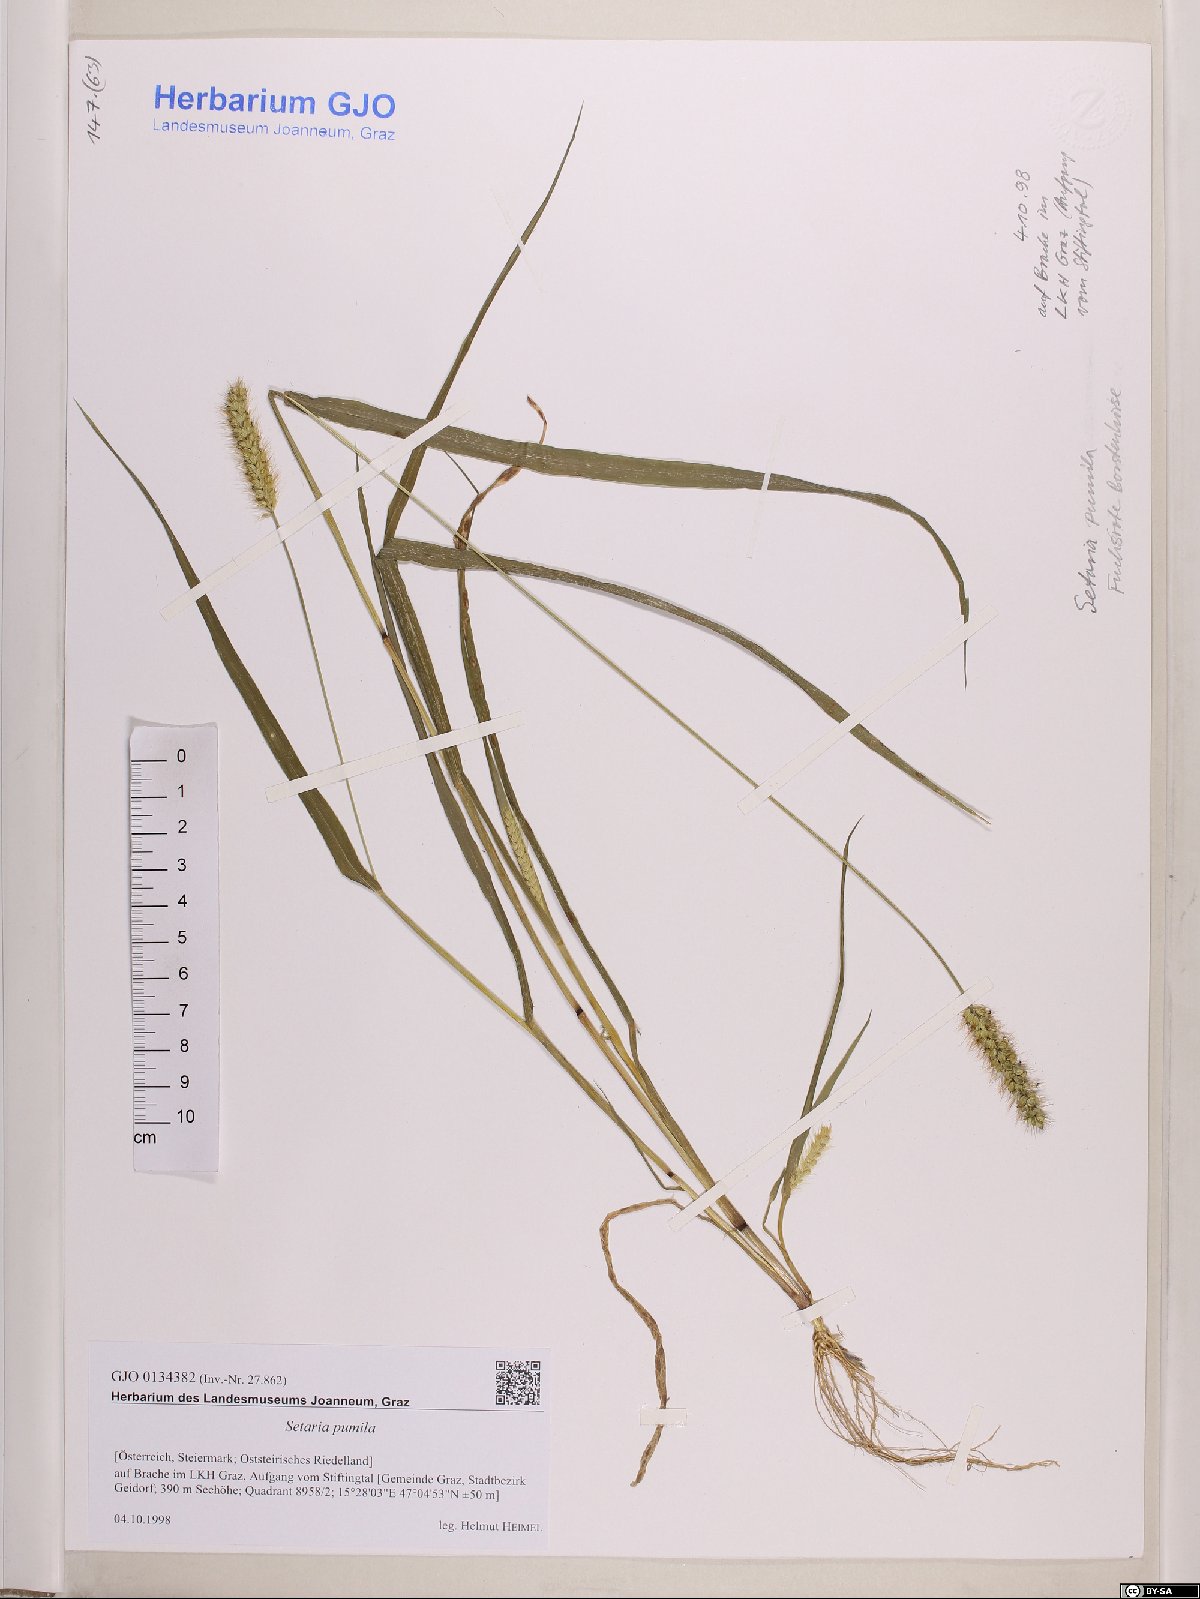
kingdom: Plantae
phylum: Tracheophyta
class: Liliopsida
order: Poales
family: Poaceae
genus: Setaria
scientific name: Setaria pumila
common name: Yellow bristle-grass
